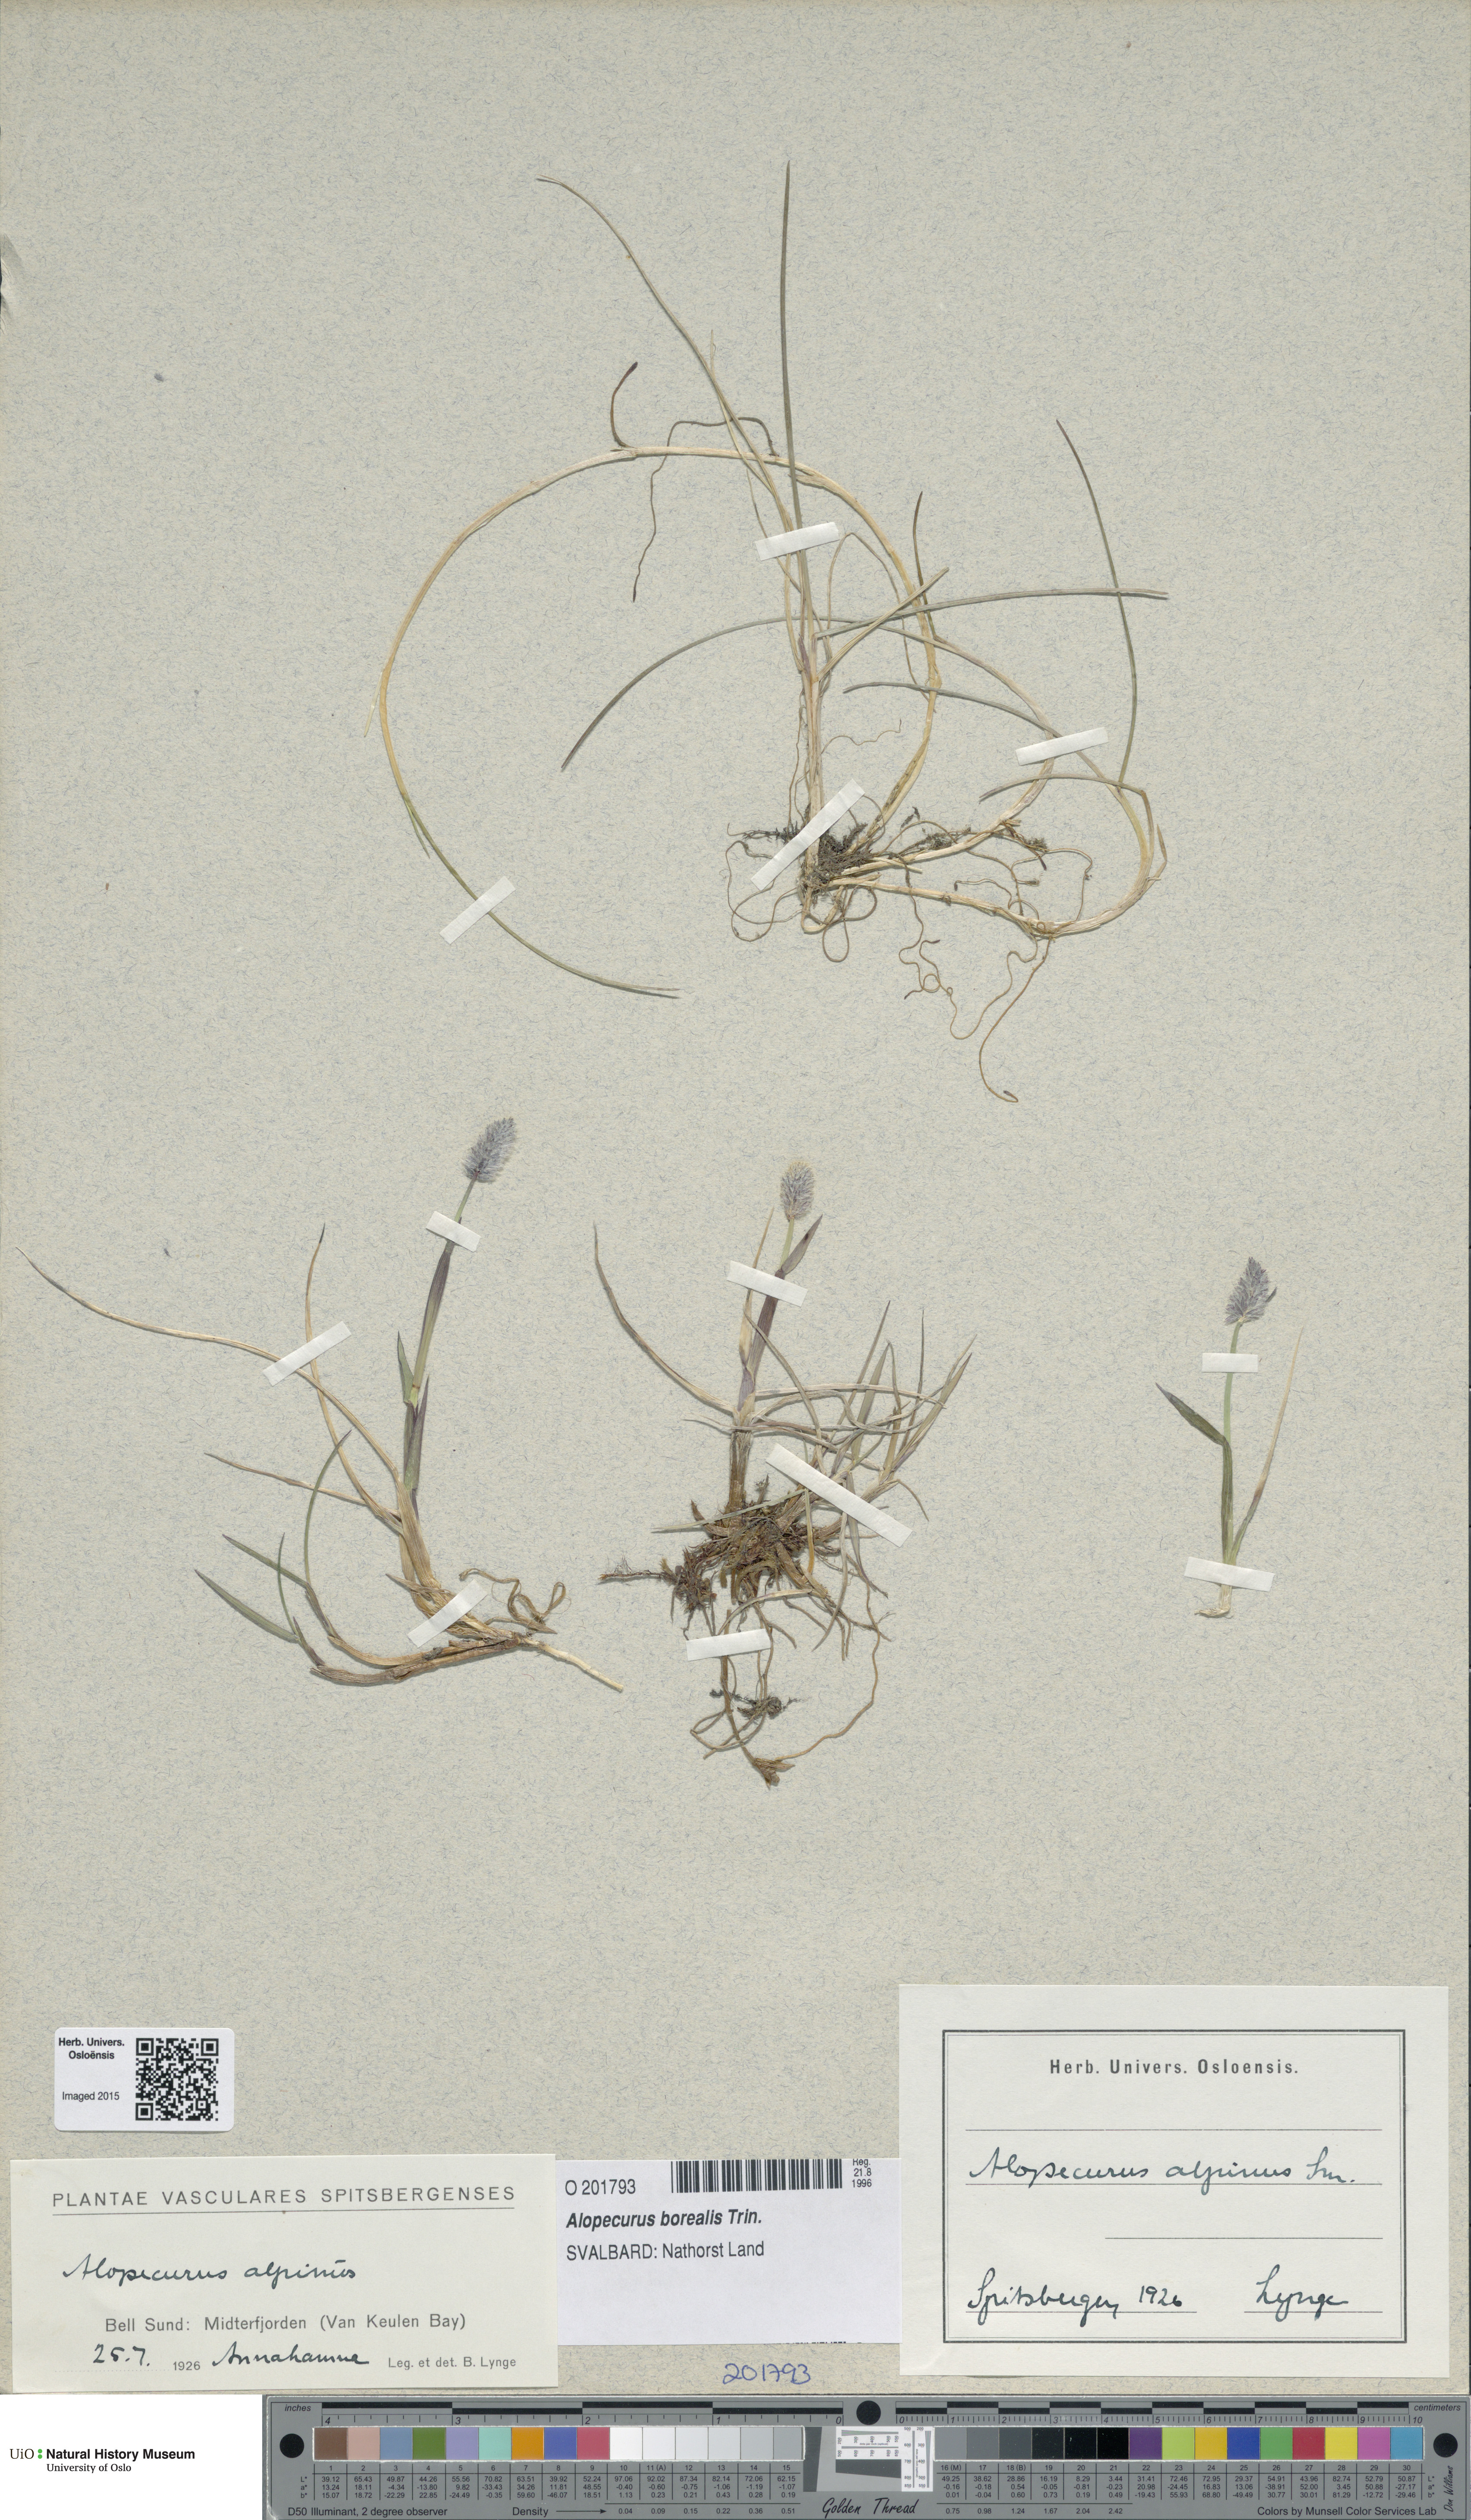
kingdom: Plantae
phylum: Tracheophyta
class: Liliopsida
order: Poales
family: Poaceae
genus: Alopecurus
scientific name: Alopecurus magellanicus
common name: Alpine foxtail
